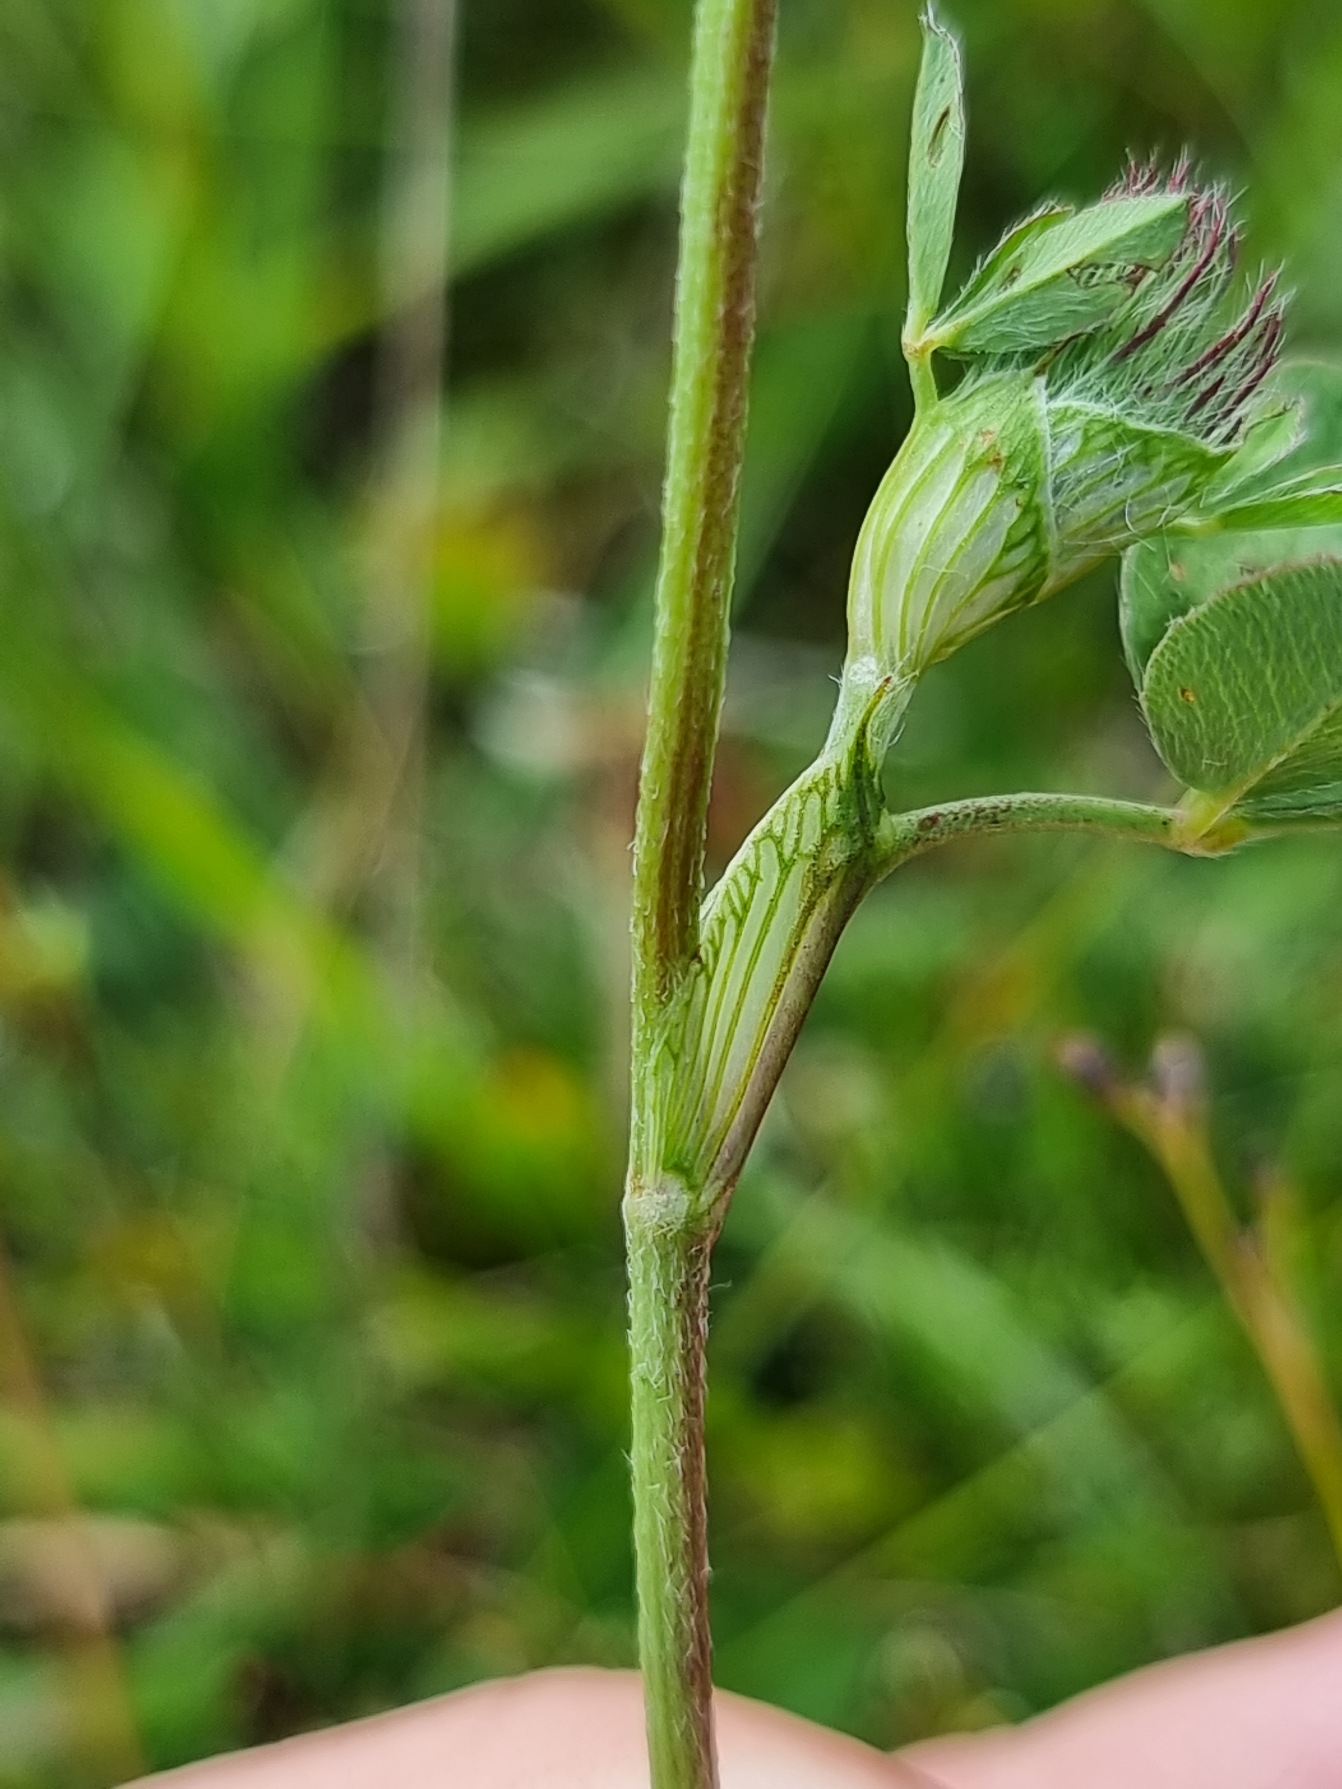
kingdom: Plantae
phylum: Tracheophyta
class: Magnoliopsida
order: Fabales
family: Fabaceae
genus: Trifolium
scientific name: Trifolium pratense
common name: Rød-kløver
